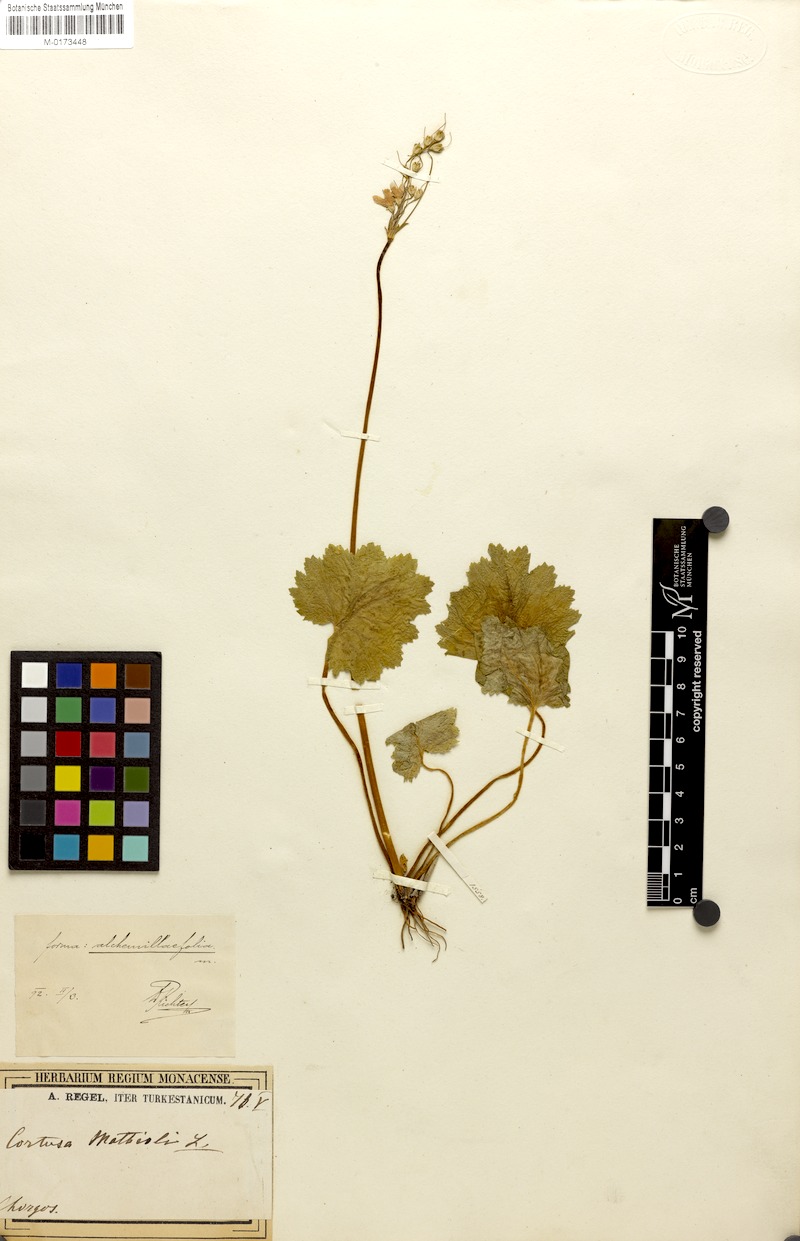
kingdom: Plantae
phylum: Tracheophyta
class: Magnoliopsida
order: Ericales
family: Primulaceae
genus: Primula
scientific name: Primula Cortusa brotheri
